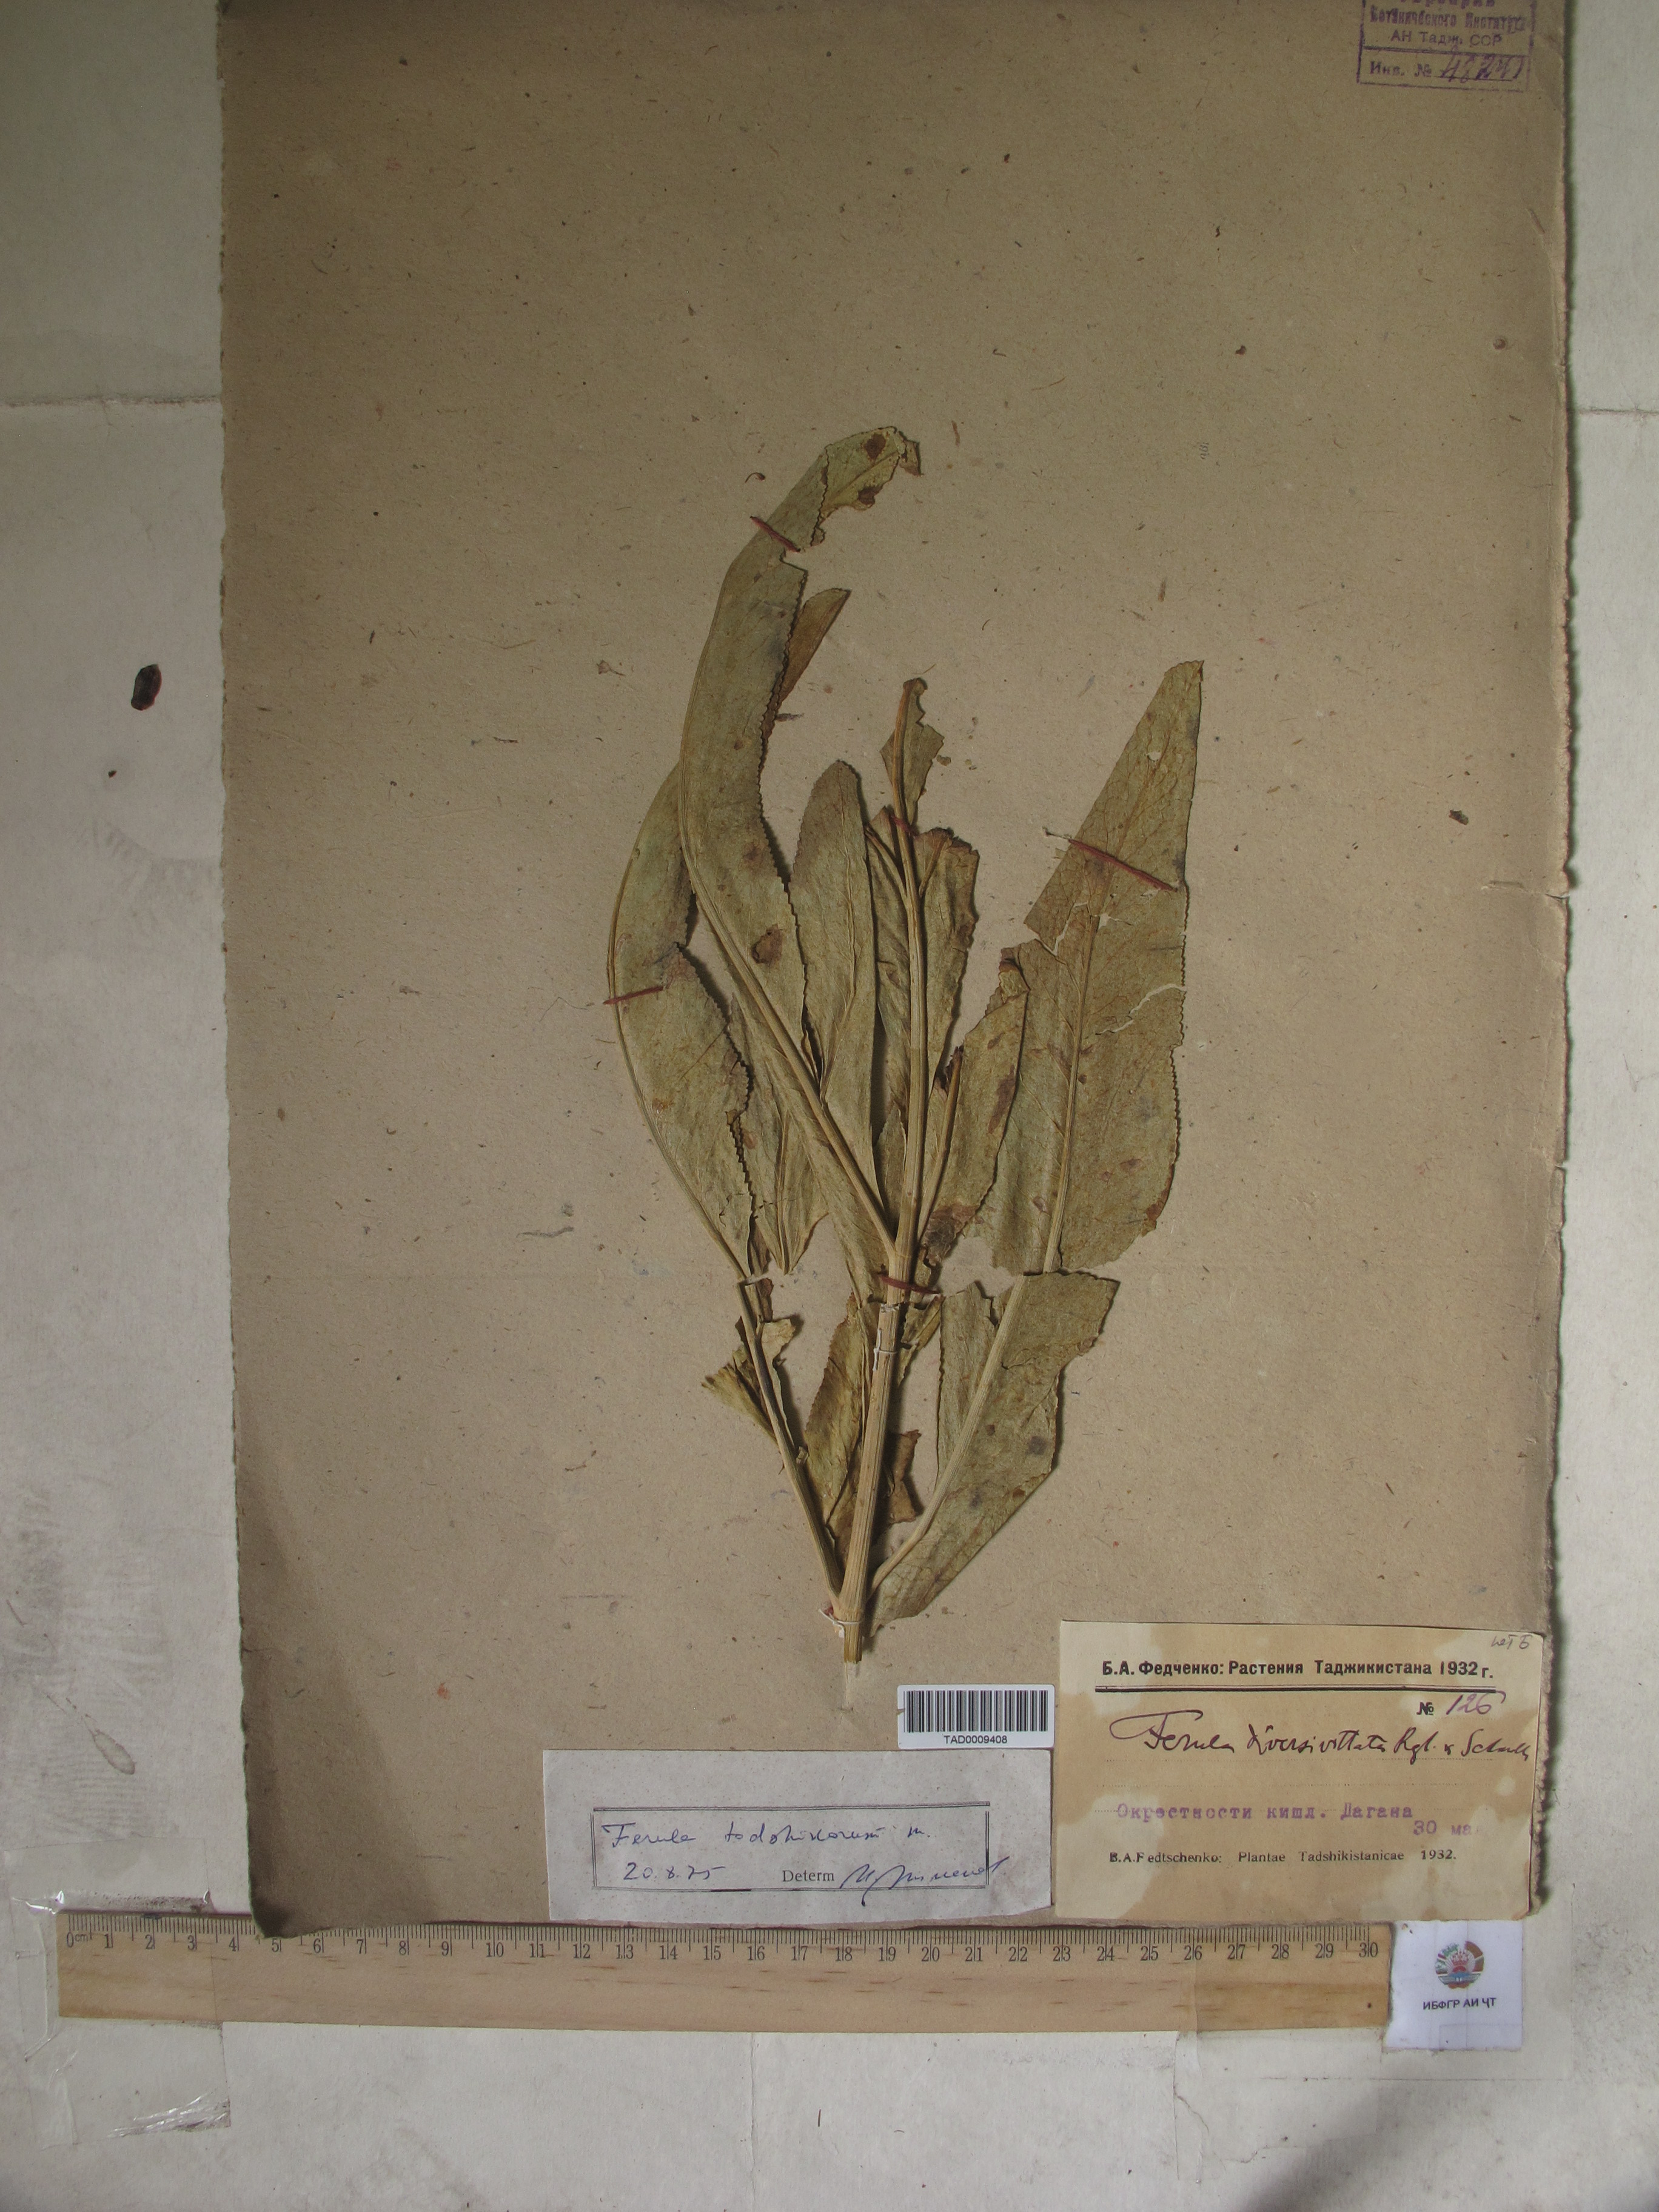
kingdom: Plantae
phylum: Tracheophyta
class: Magnoliopsida
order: Apiales
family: Apiaceae
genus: Ferula
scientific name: Ferula tadshikorum
